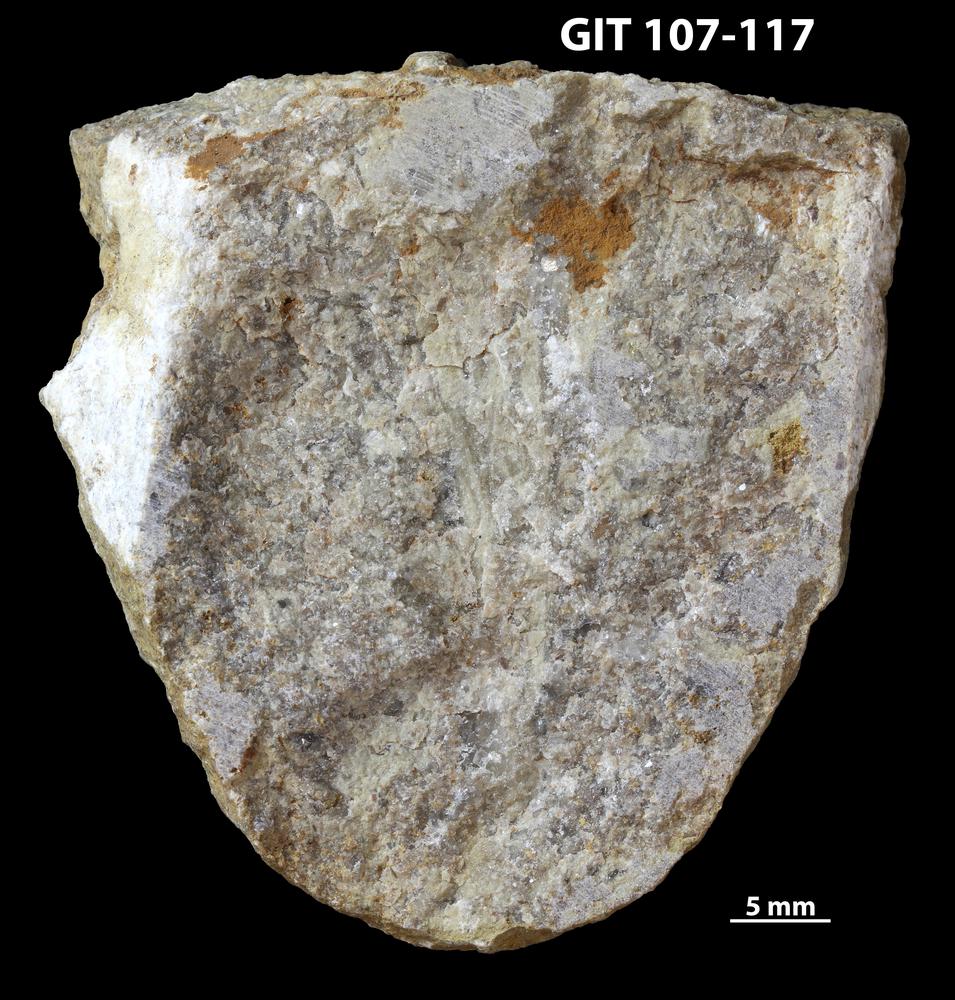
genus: Conichnus
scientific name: Conichnus
